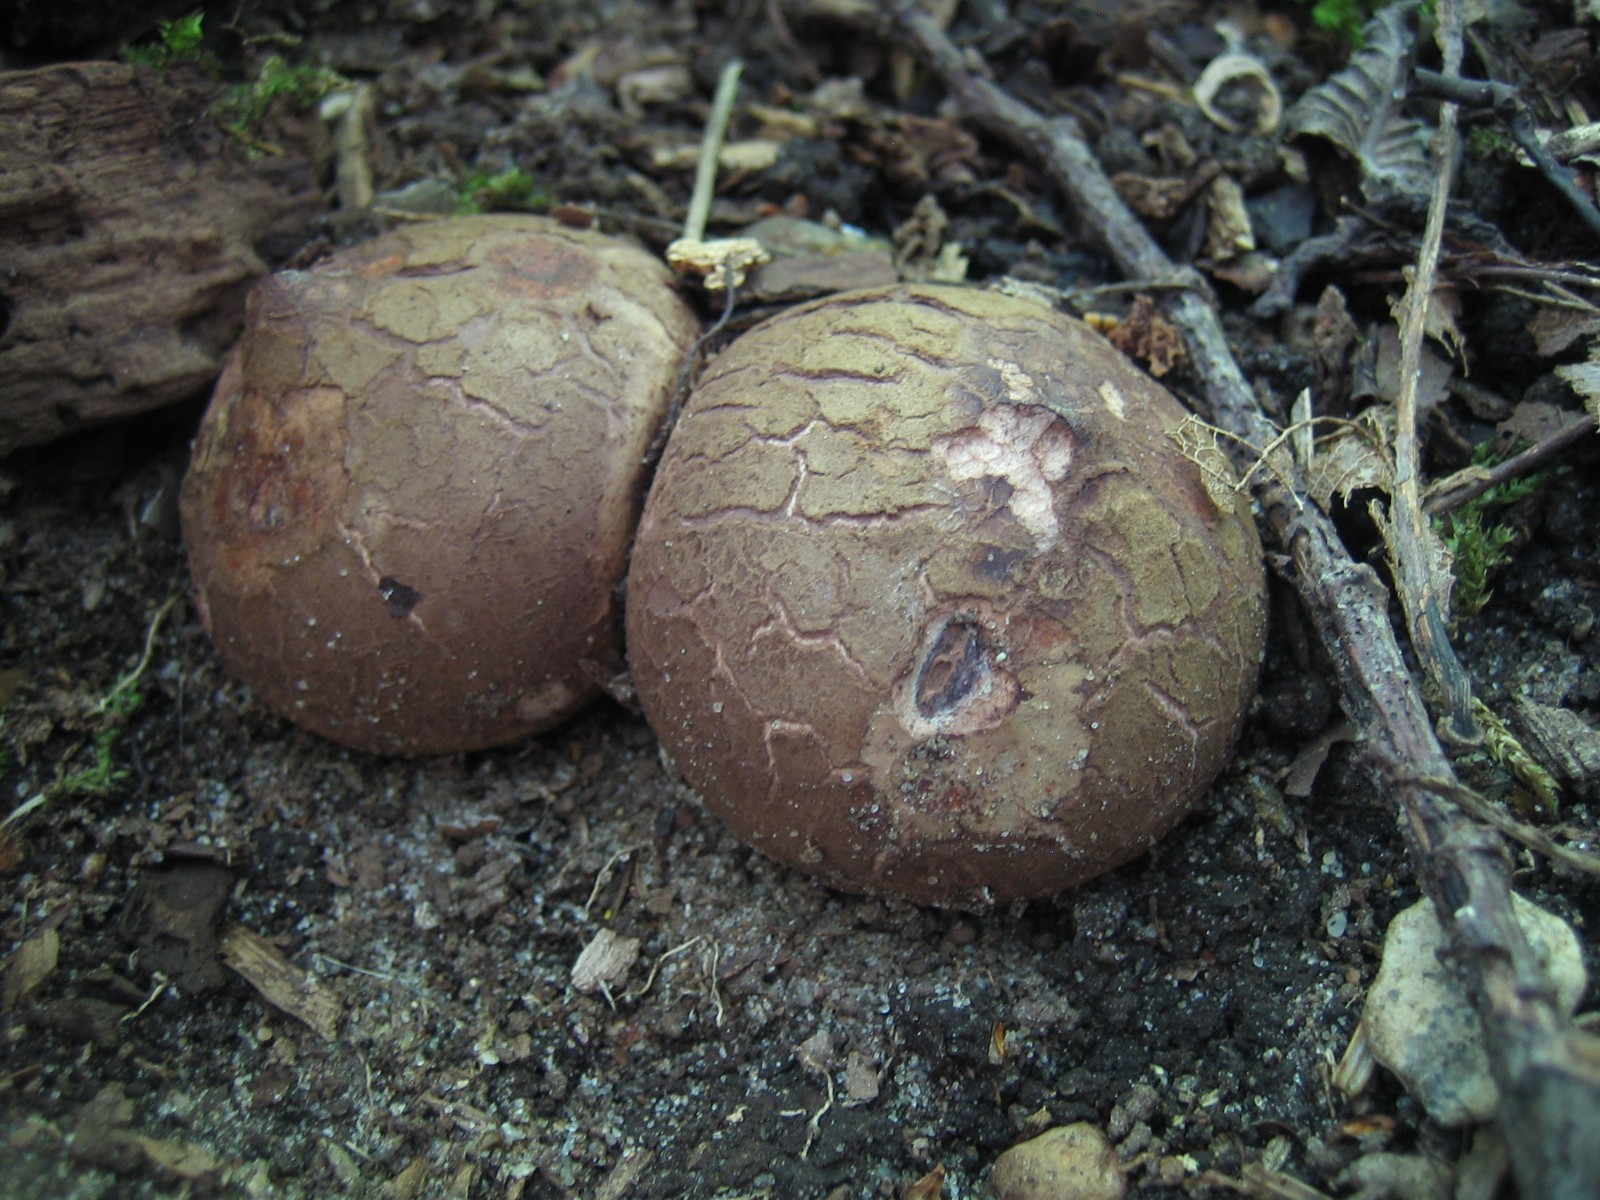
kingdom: Fungi
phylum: Basidiomycota
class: Agaricomycetes
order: Geastrales
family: Geastraceae
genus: Geastrum
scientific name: Geastrum michelianum
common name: kødet stjernebold
